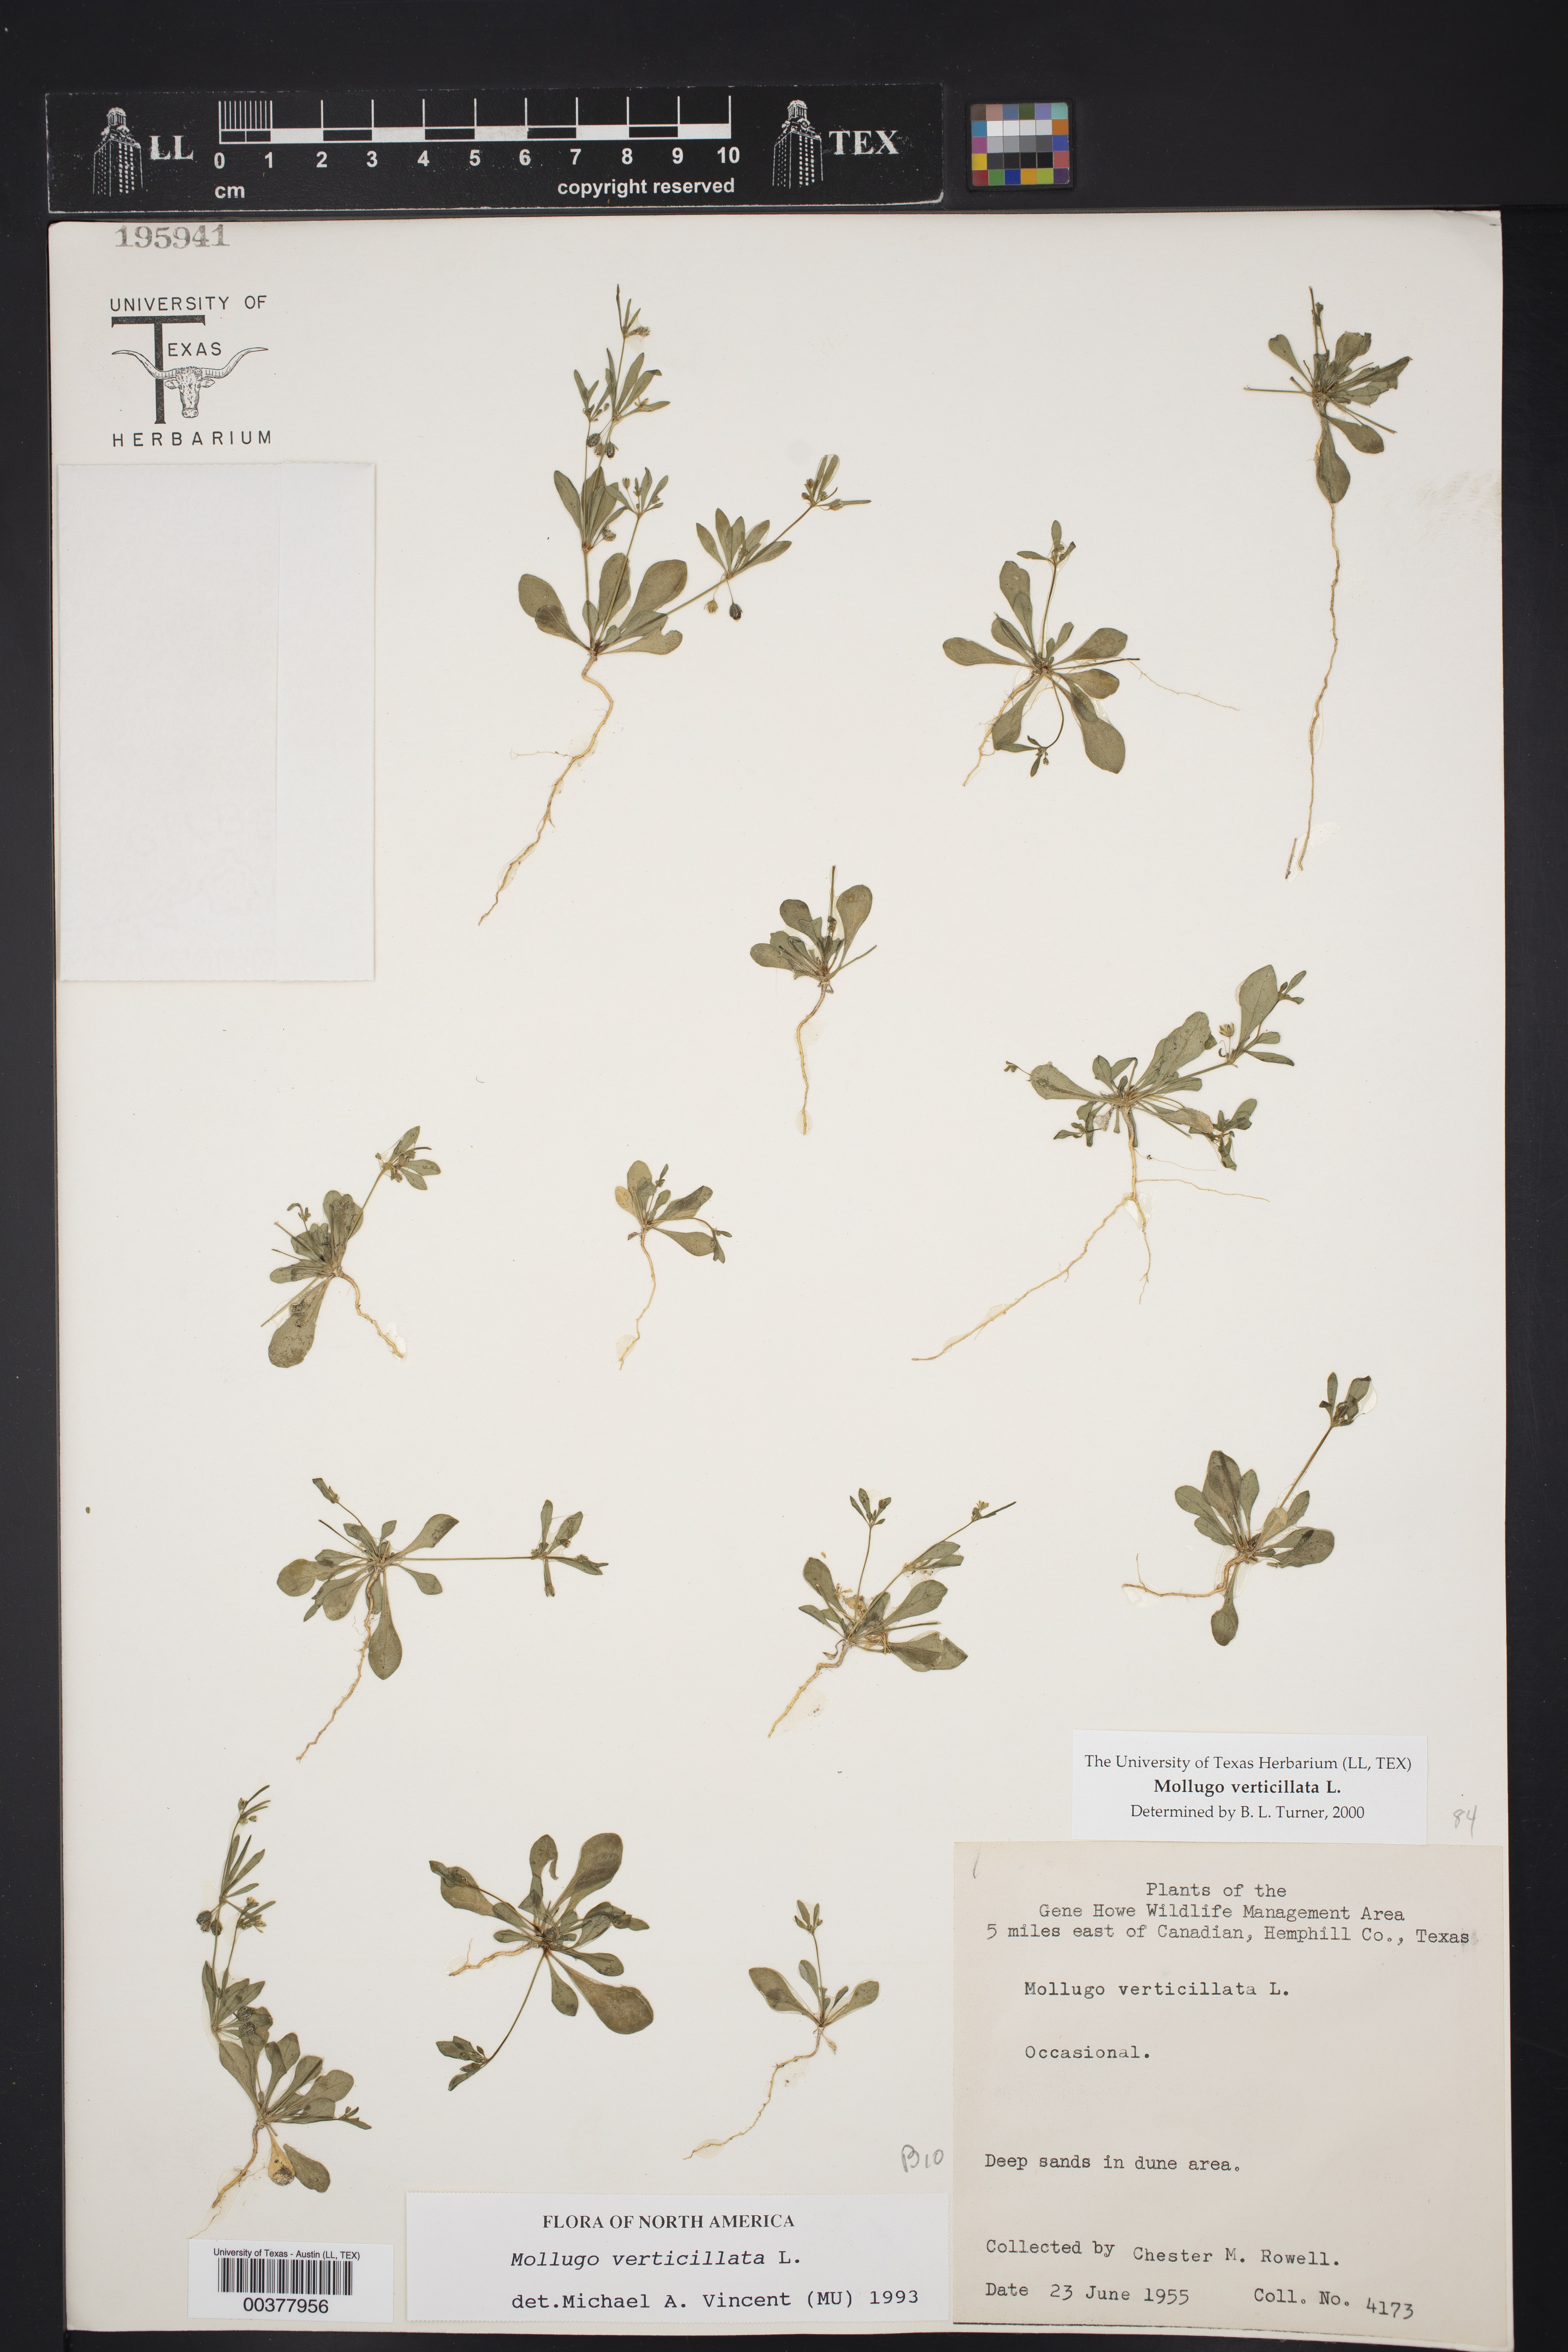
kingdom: Plantae
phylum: Tracheophyta
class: Magnoliopsida
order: Caryophyllales
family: Molluginaceae
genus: Mollugo
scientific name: Mollugo verticillata
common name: Green carpetweed
